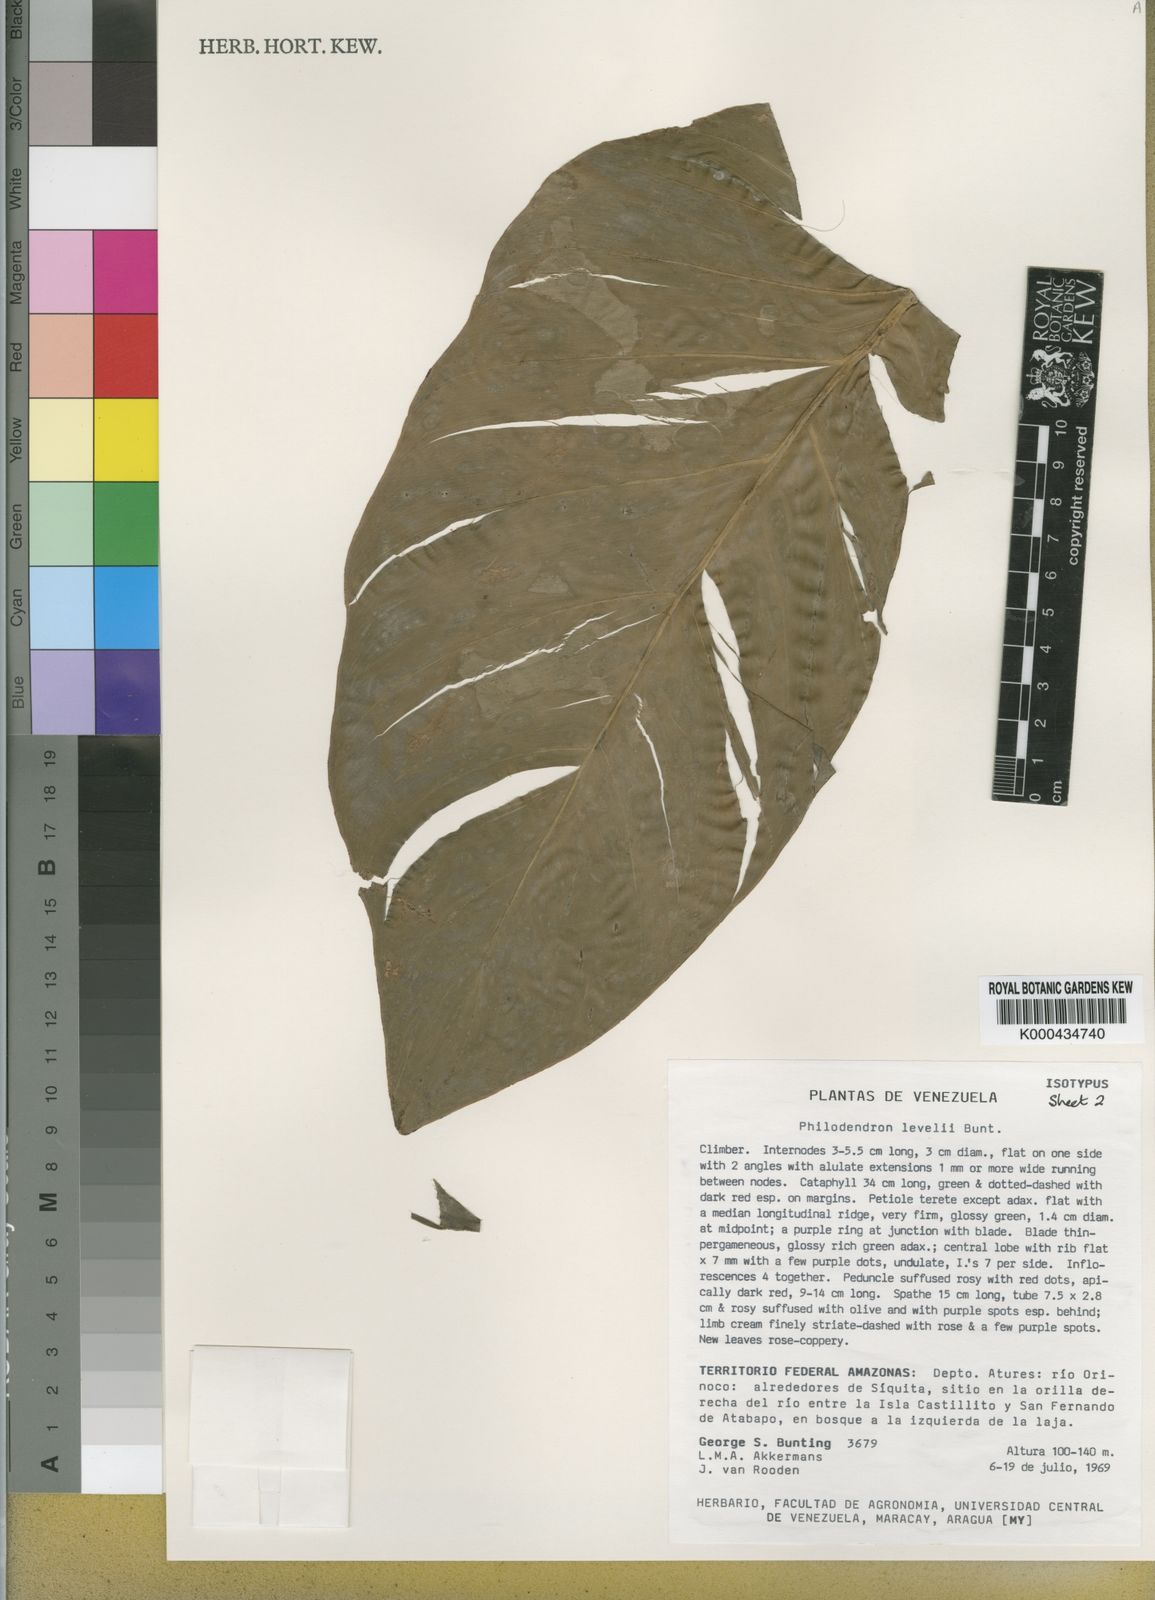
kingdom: Plantae
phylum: Tracheophyta
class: Liliopsida
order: Alismatales
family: Araceae
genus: Philodendron
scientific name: Philodendron barrosoanum
